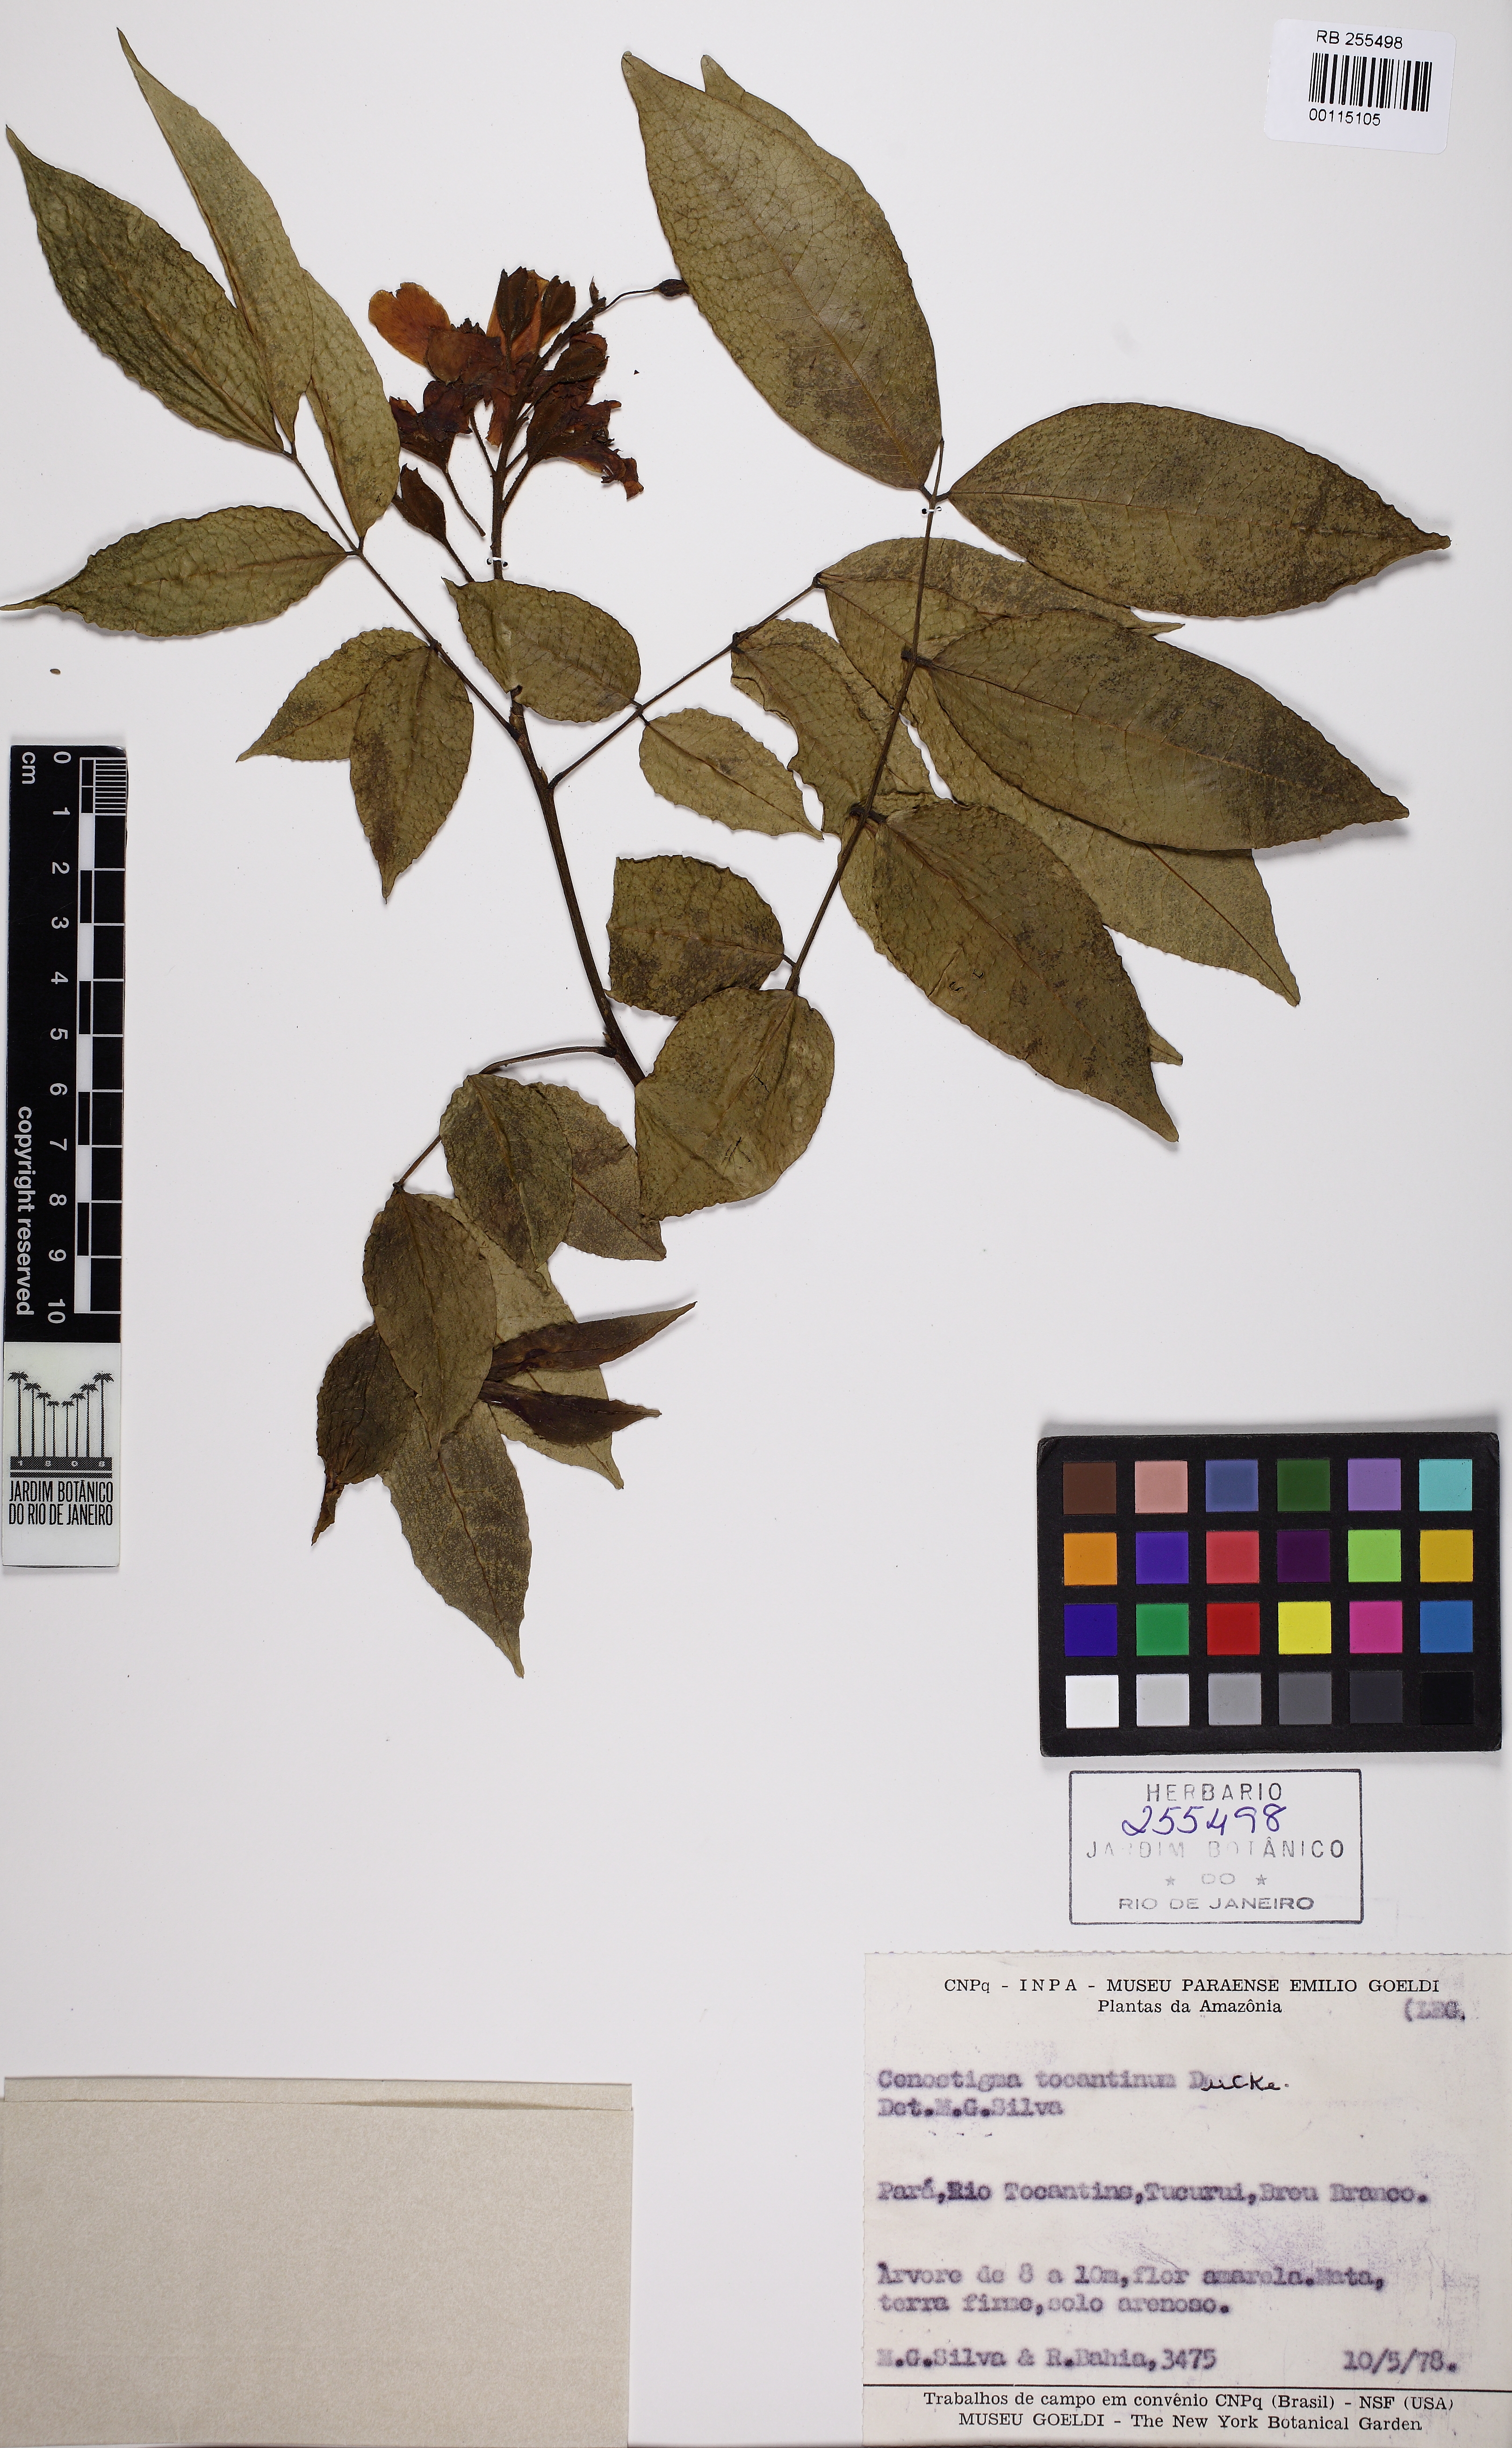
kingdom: Plantae
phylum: Tracheophyta
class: Magnoliopsida
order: Fabales
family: Fabaceae
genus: Cenostigma
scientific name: Cenostigma tocantinum
